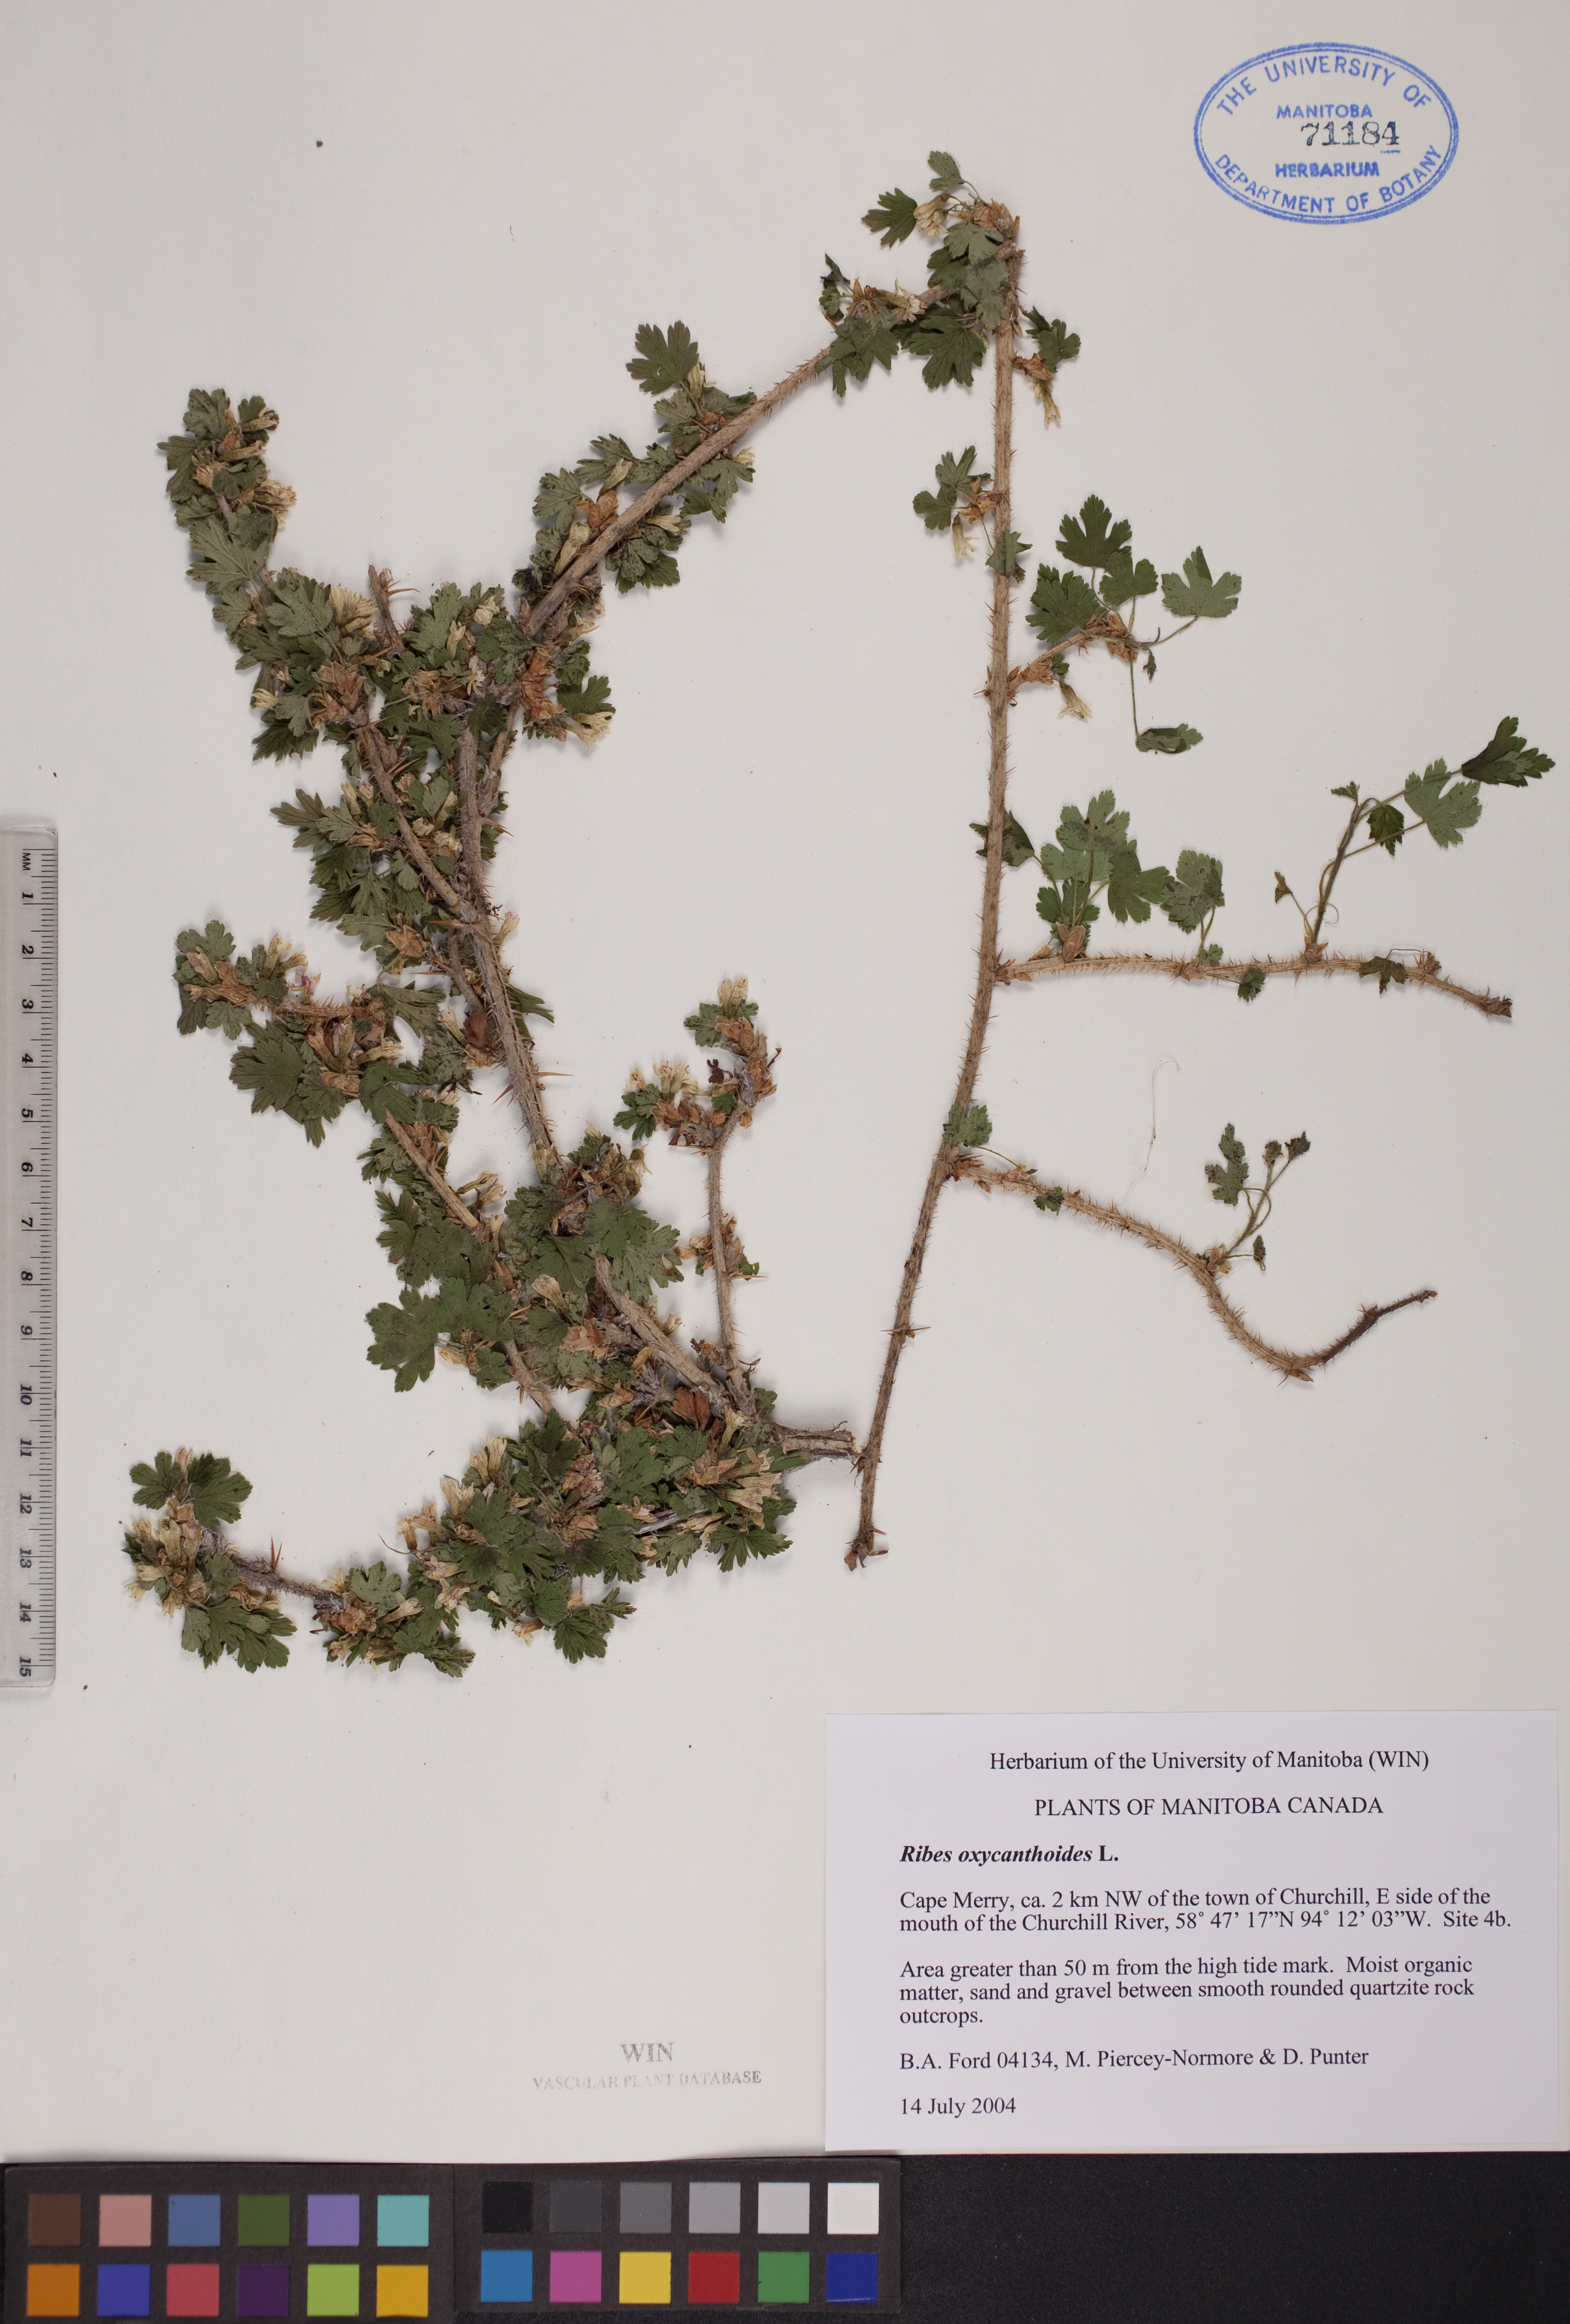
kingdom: Plantae
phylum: Tracheophyta
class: Magnoliopsida
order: Saxifragales
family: Grossulariaceae
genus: Ribes
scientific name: Ribes oxyacanthoides
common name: Northern gooseberry
